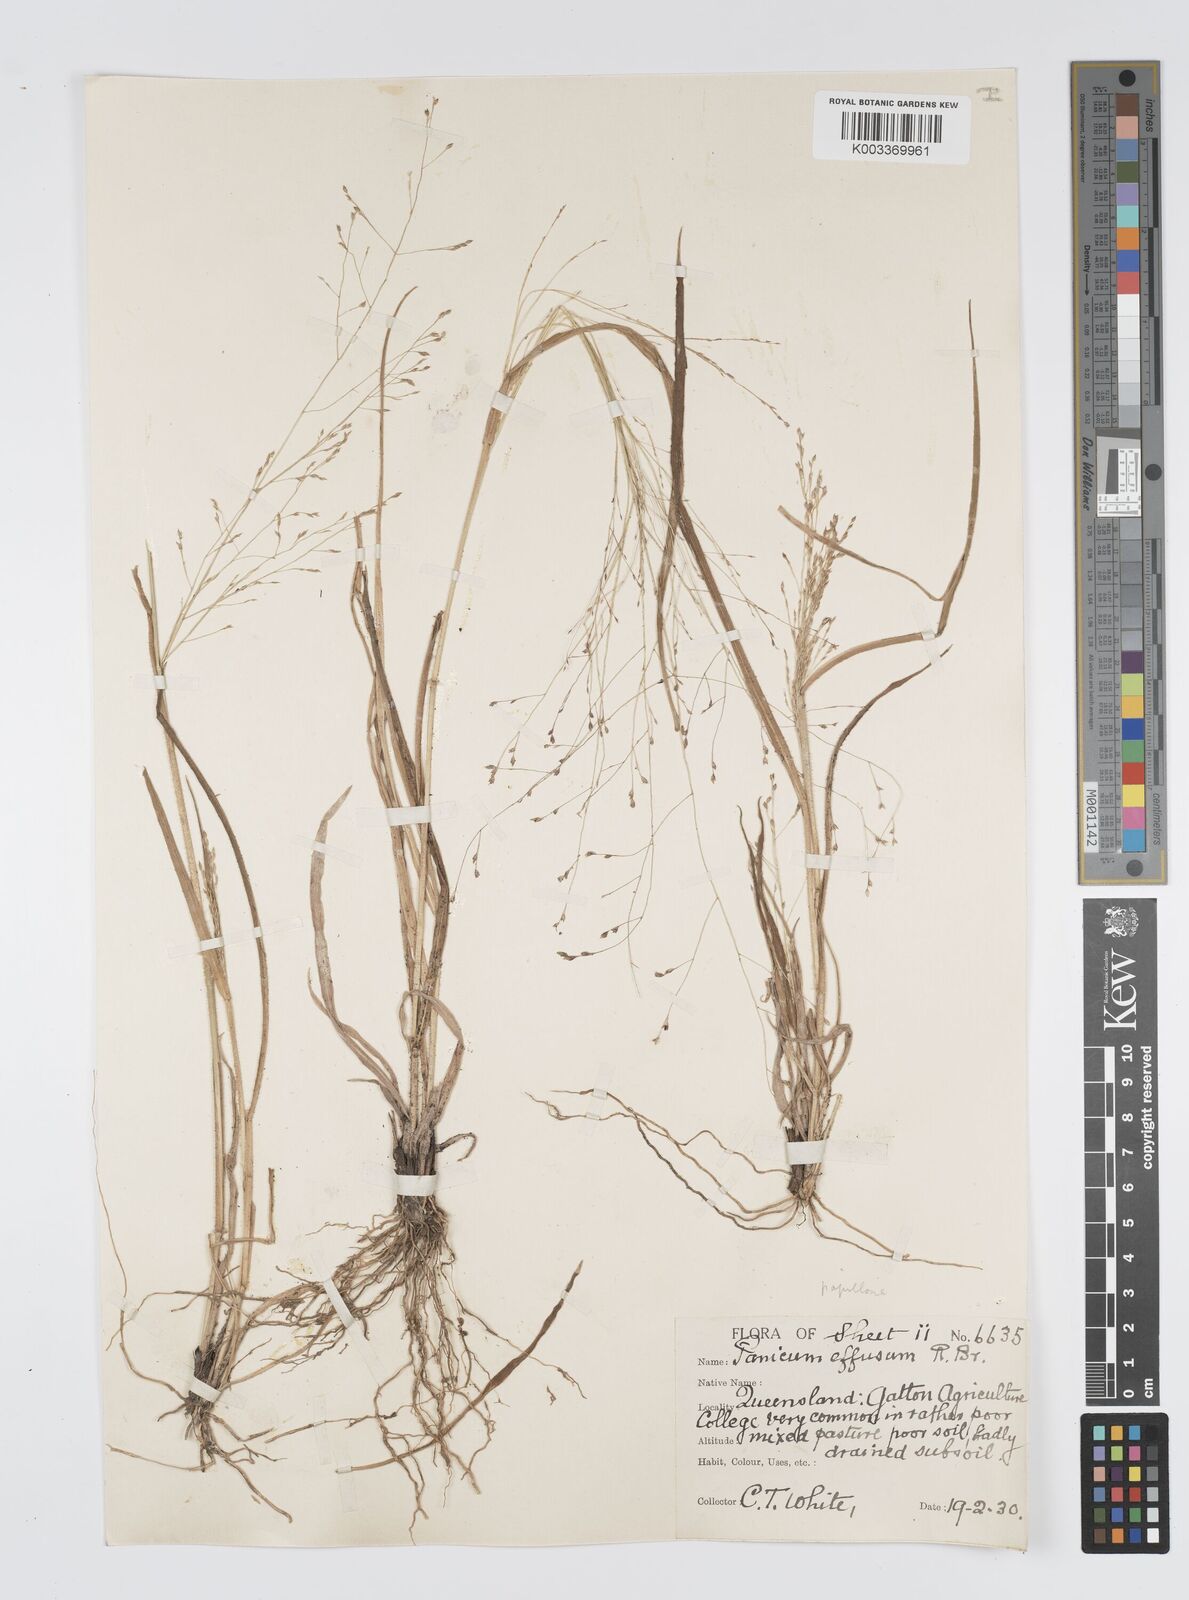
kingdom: Plantae
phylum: Tracheophyta
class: Liliopsida
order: Poales
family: Poaceae
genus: Panicum
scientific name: Panicum effusum
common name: Hairy panic grass
